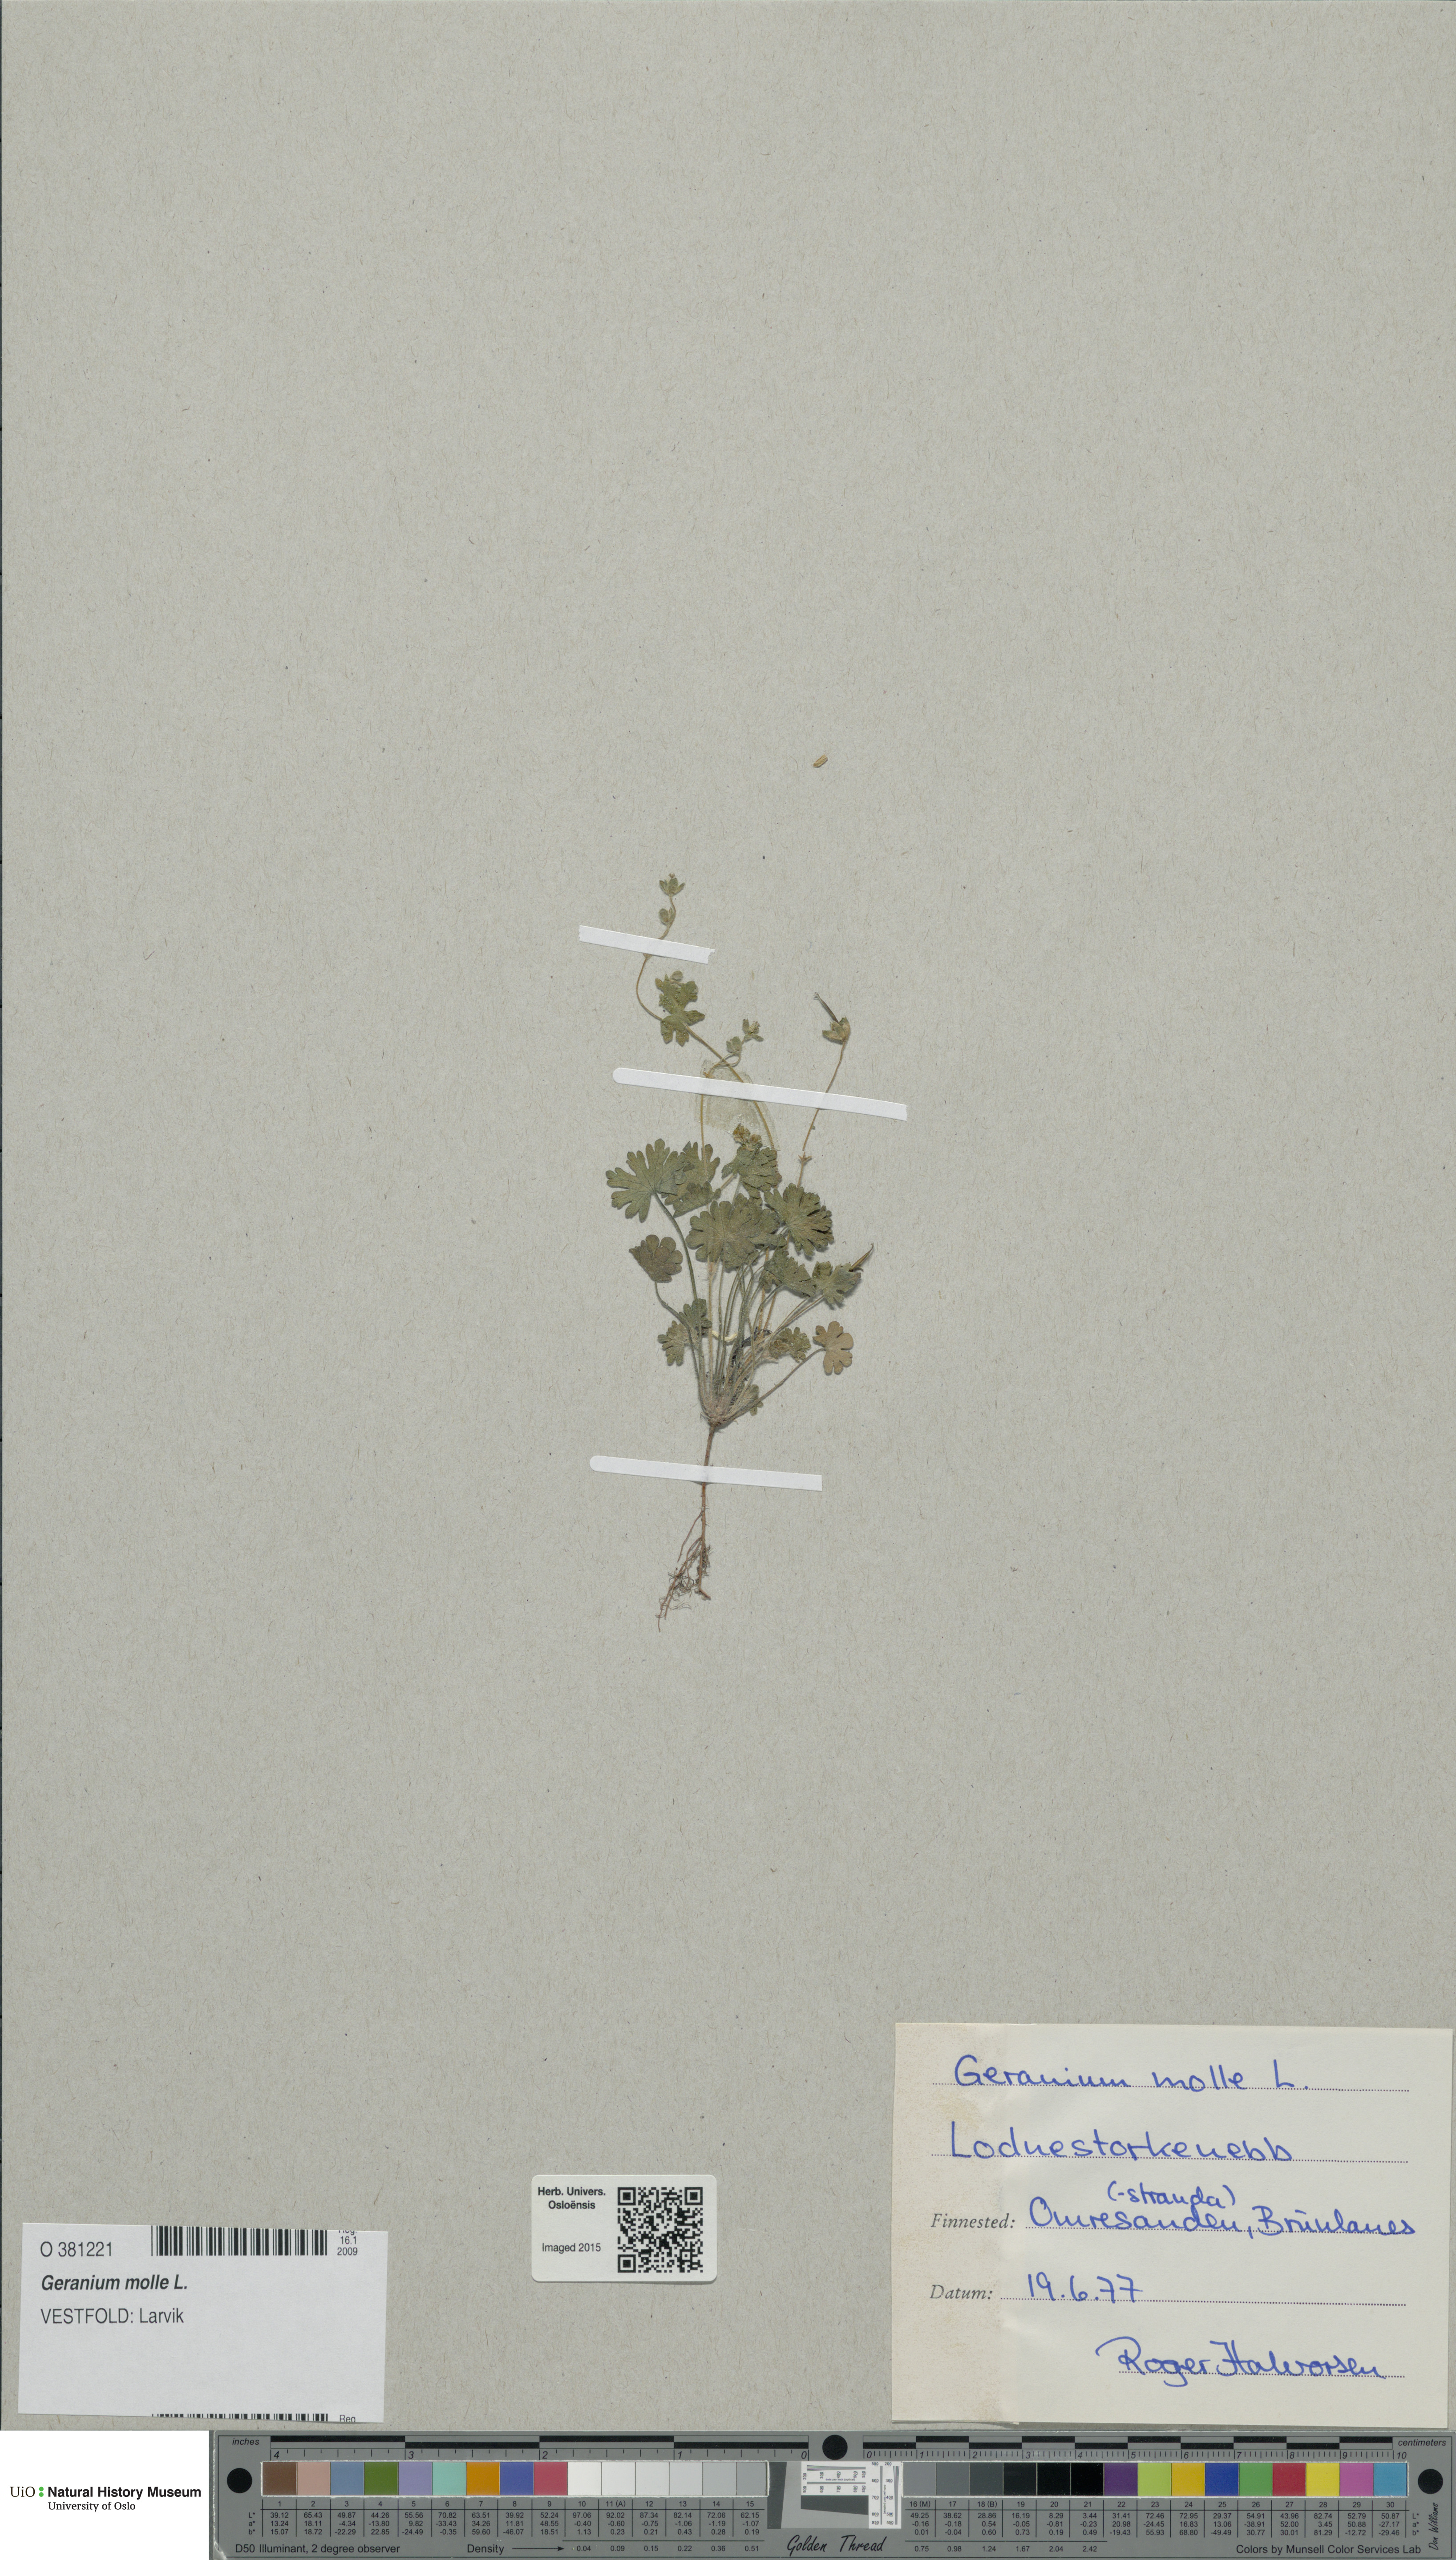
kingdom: Plantae
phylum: Tracheophyta
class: Magnoliopsida
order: Geraniales
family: Geraniaceae
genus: Geranium
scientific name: Geranium molle
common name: Dove's-foot crane's-bill
